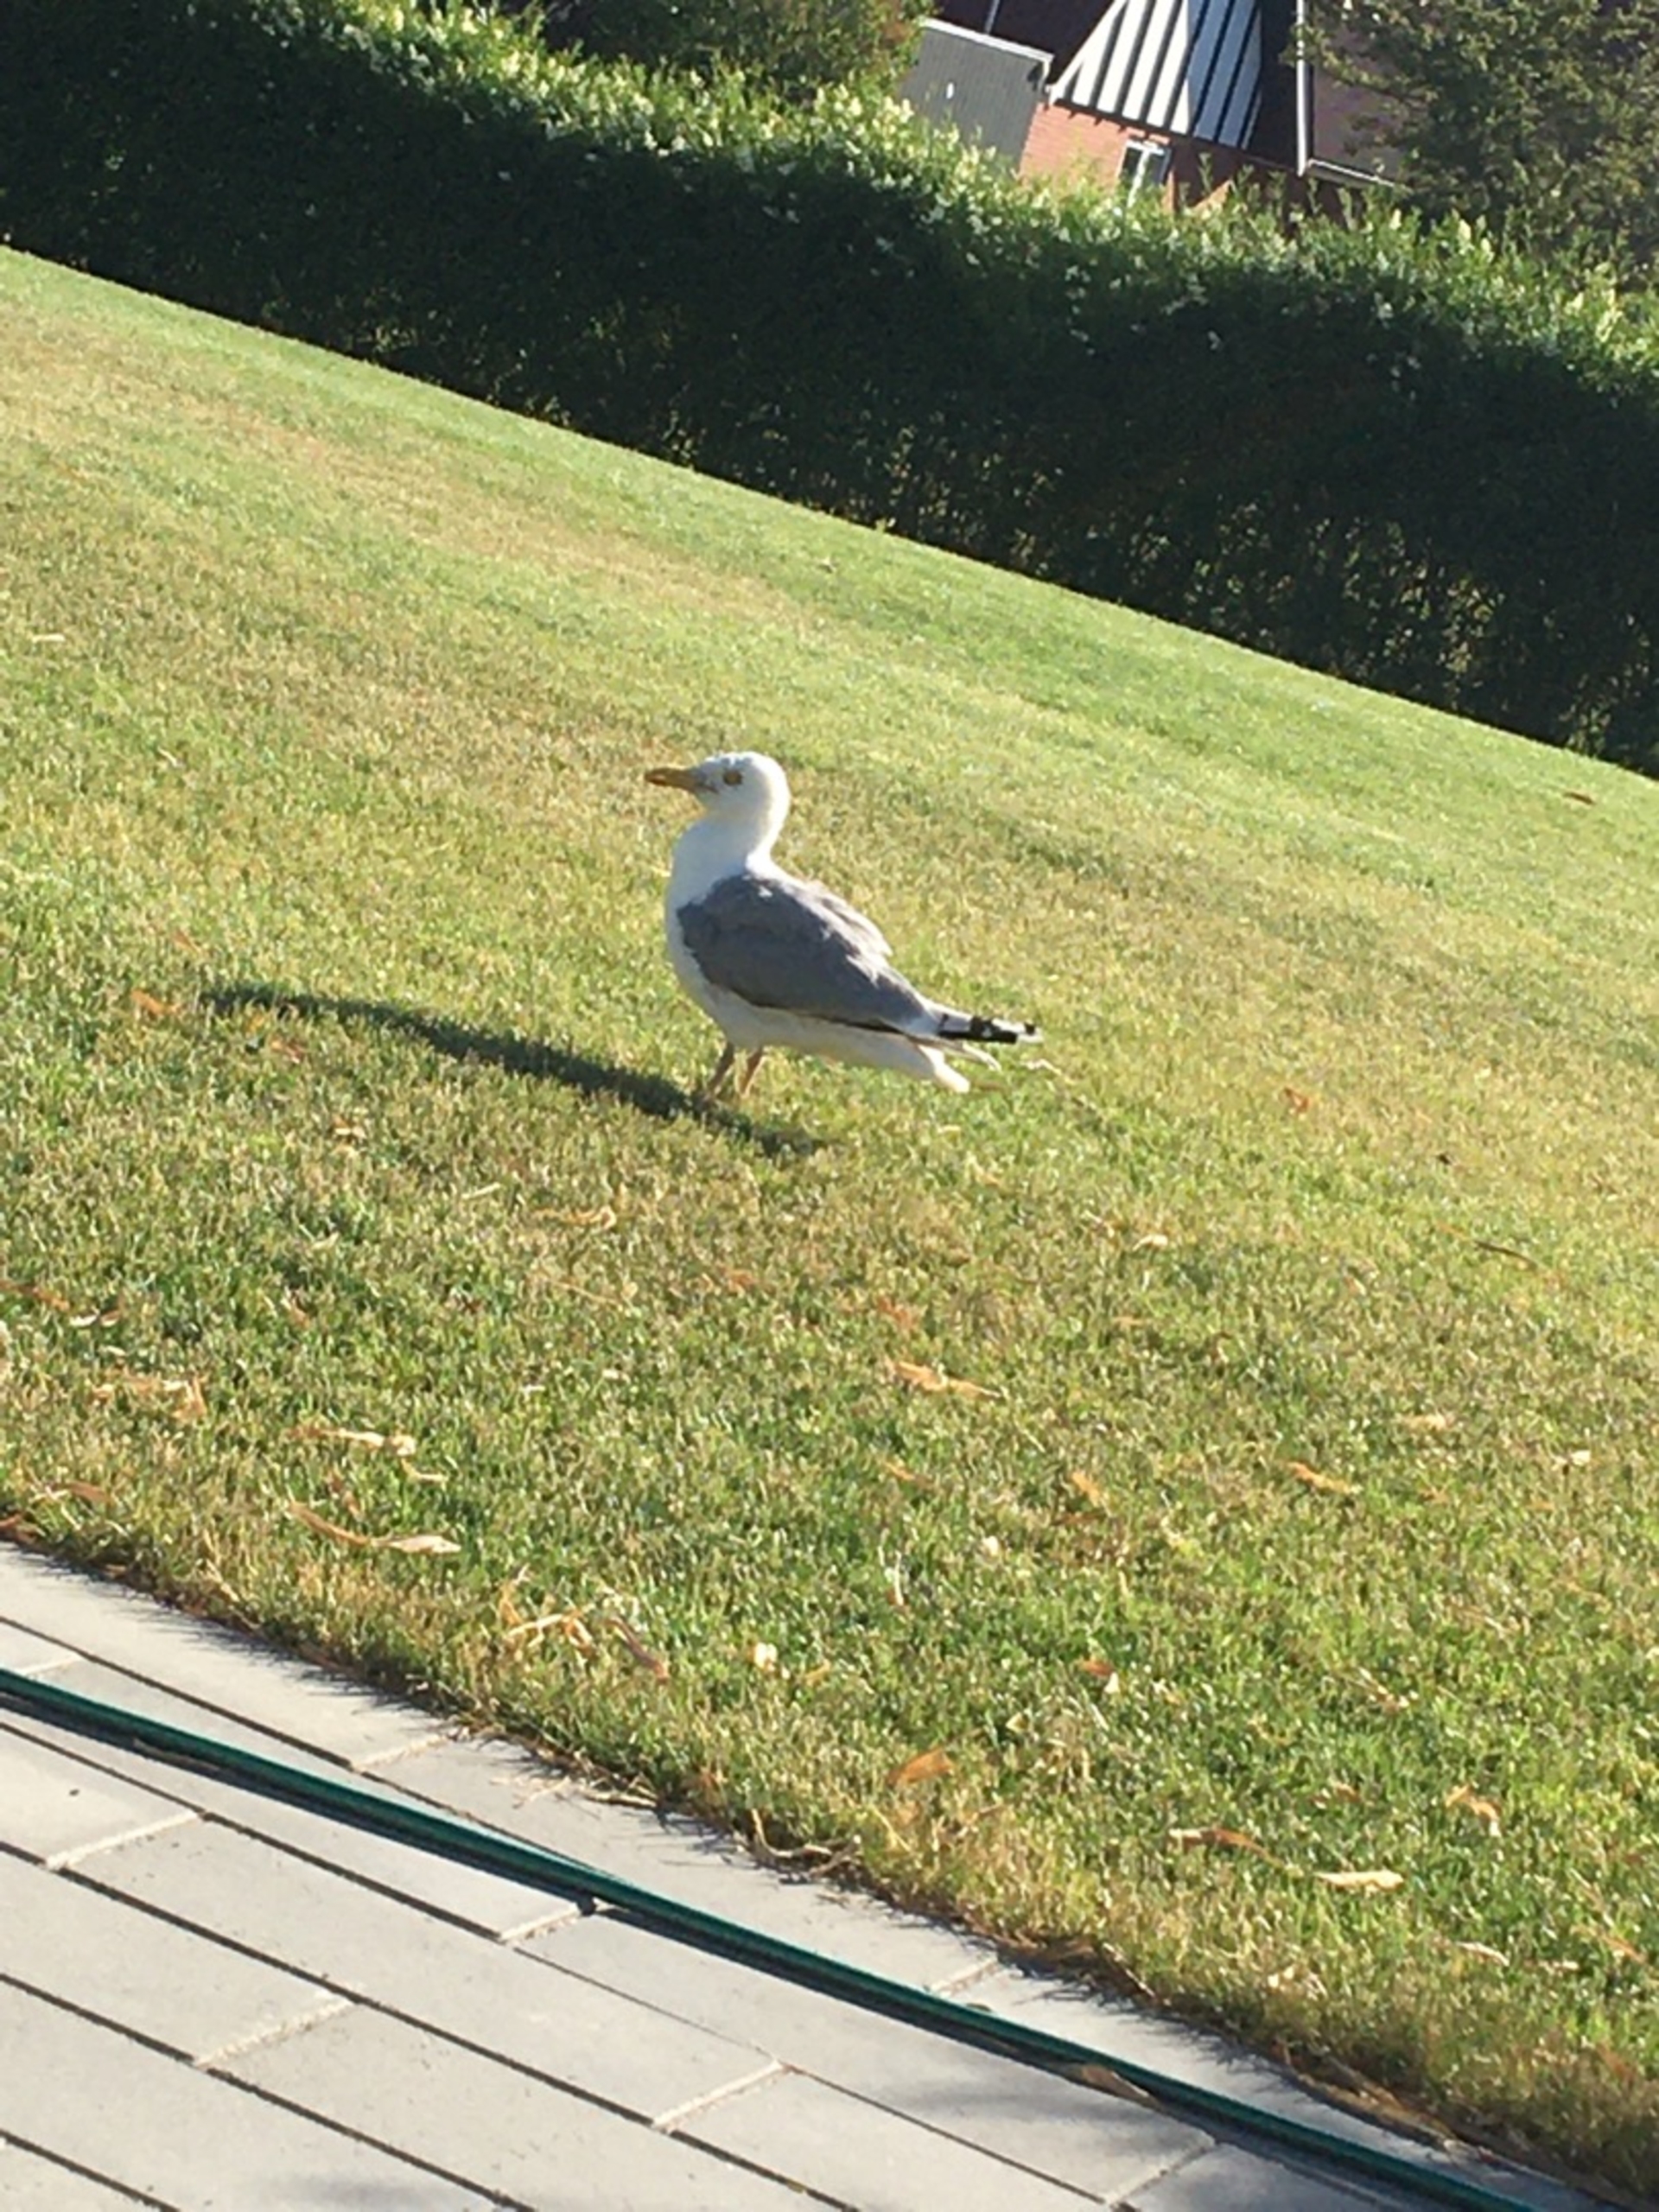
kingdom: Animalia
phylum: Chordata
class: Aves
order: Charadriiformes
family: Laridae
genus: Larus
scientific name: Larus argentatus
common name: Sølvmåge
